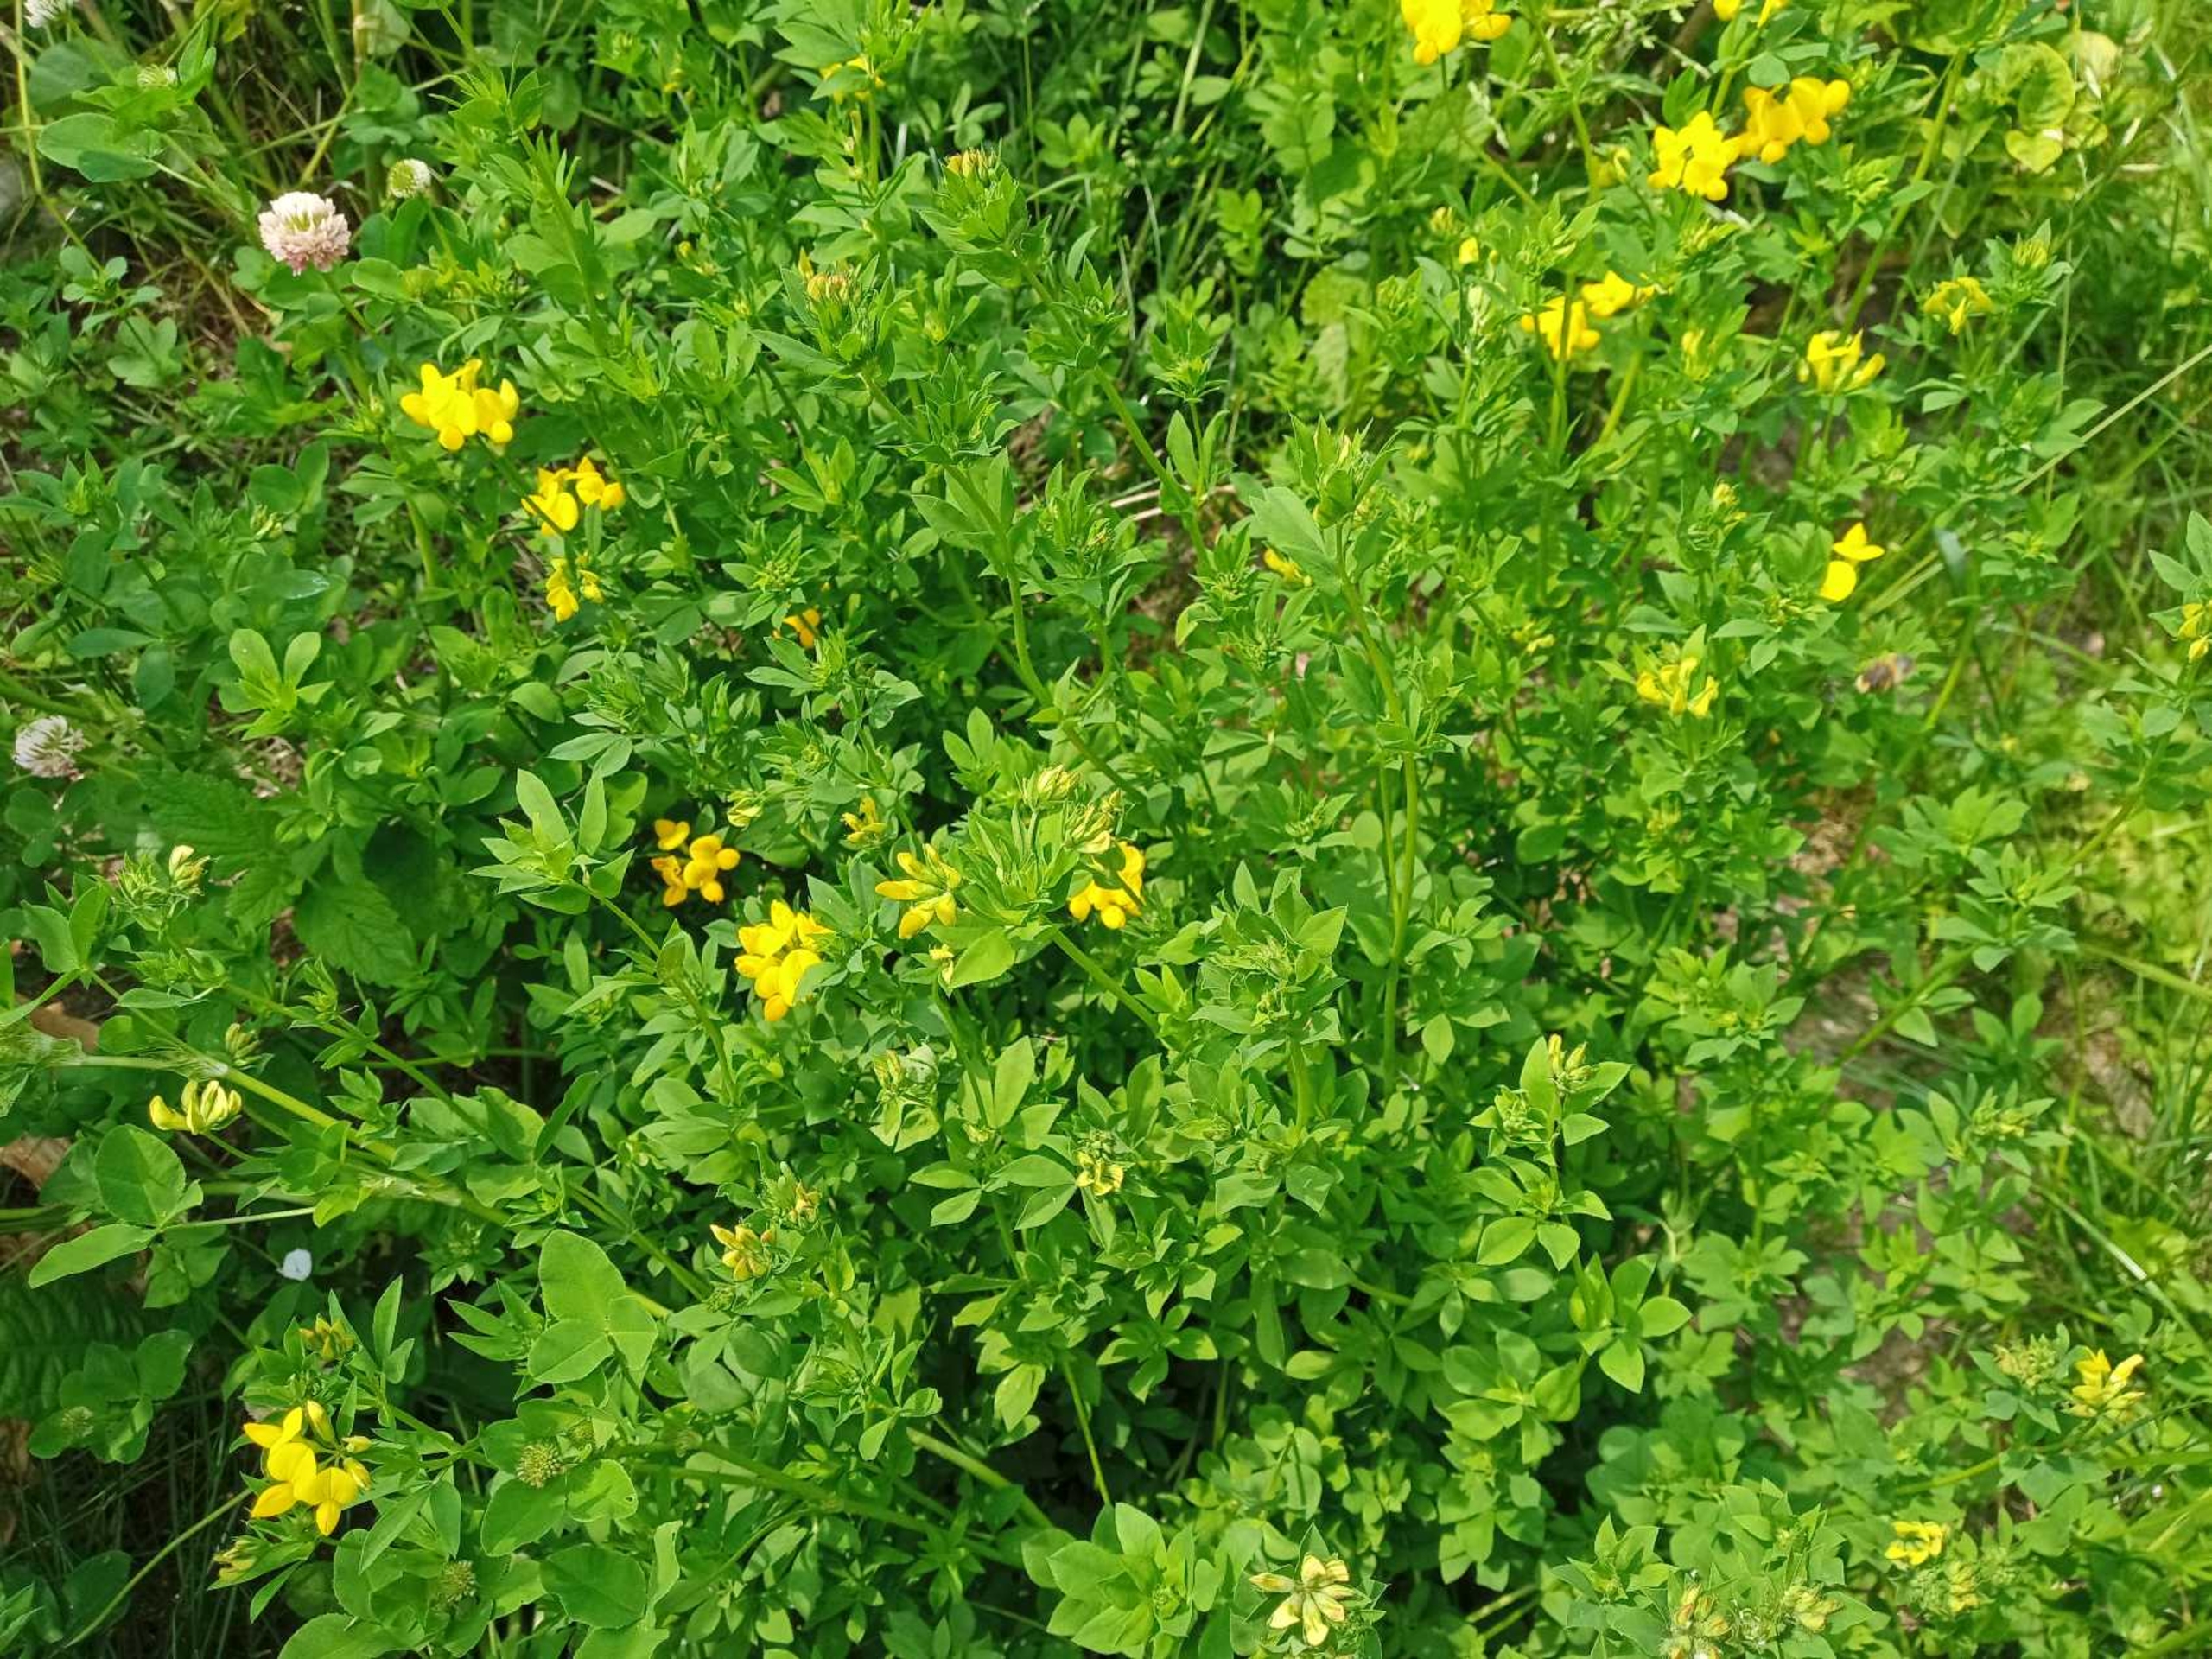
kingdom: Plantae
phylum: Tracheophyta
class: Magnoliopsida
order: Fabales
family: Fabaceae
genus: Lotus
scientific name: Lotus corniculatus
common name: Almindelig kællingetand
